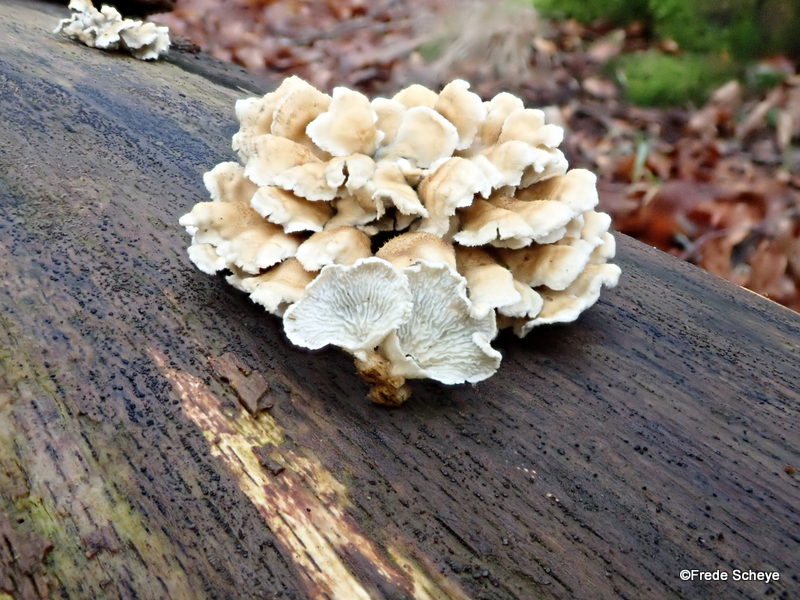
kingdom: Fungi
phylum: Basidiomycota
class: Agaricomycetes
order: Amylocorticiales
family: Amylocorticiaceae
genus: Plicaturopsis
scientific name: Plicaturopsis crispa
